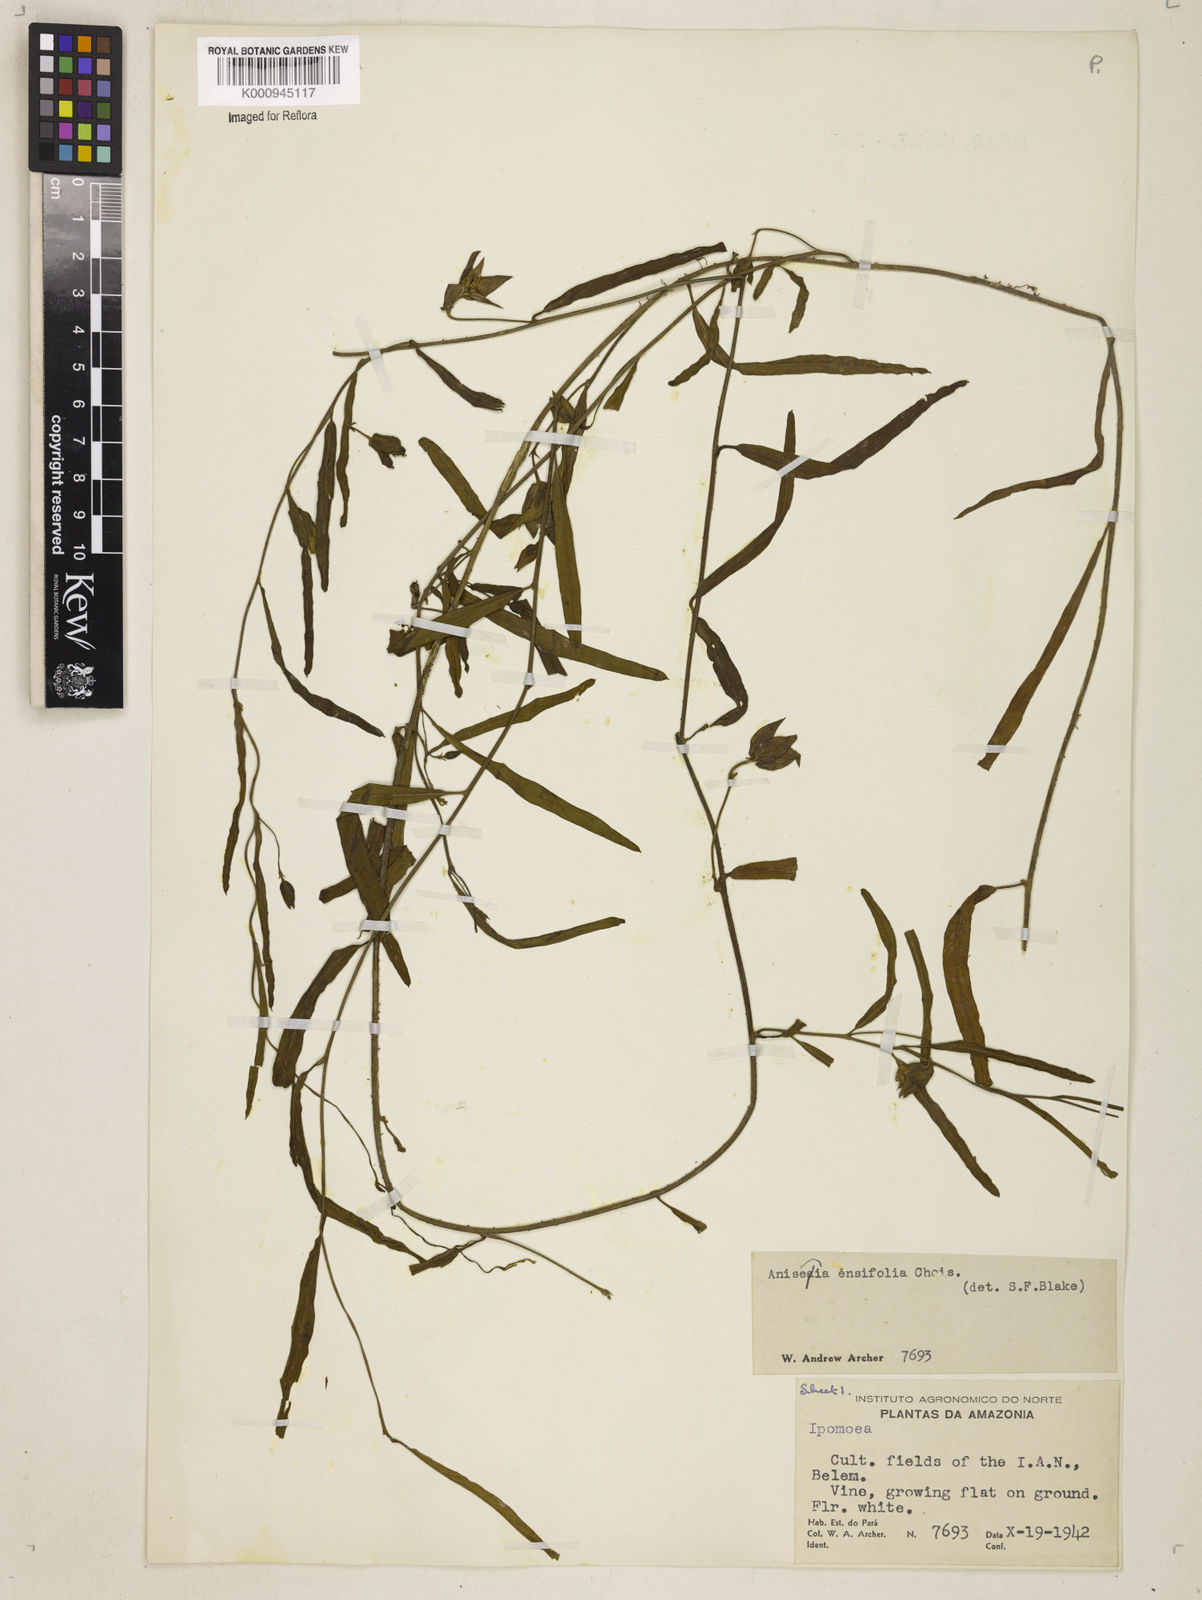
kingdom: Plantae
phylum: Tracheophyta
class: Magnoliopsida
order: Solanales
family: Convolvulaceae
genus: Aniseia
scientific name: Aniseia
